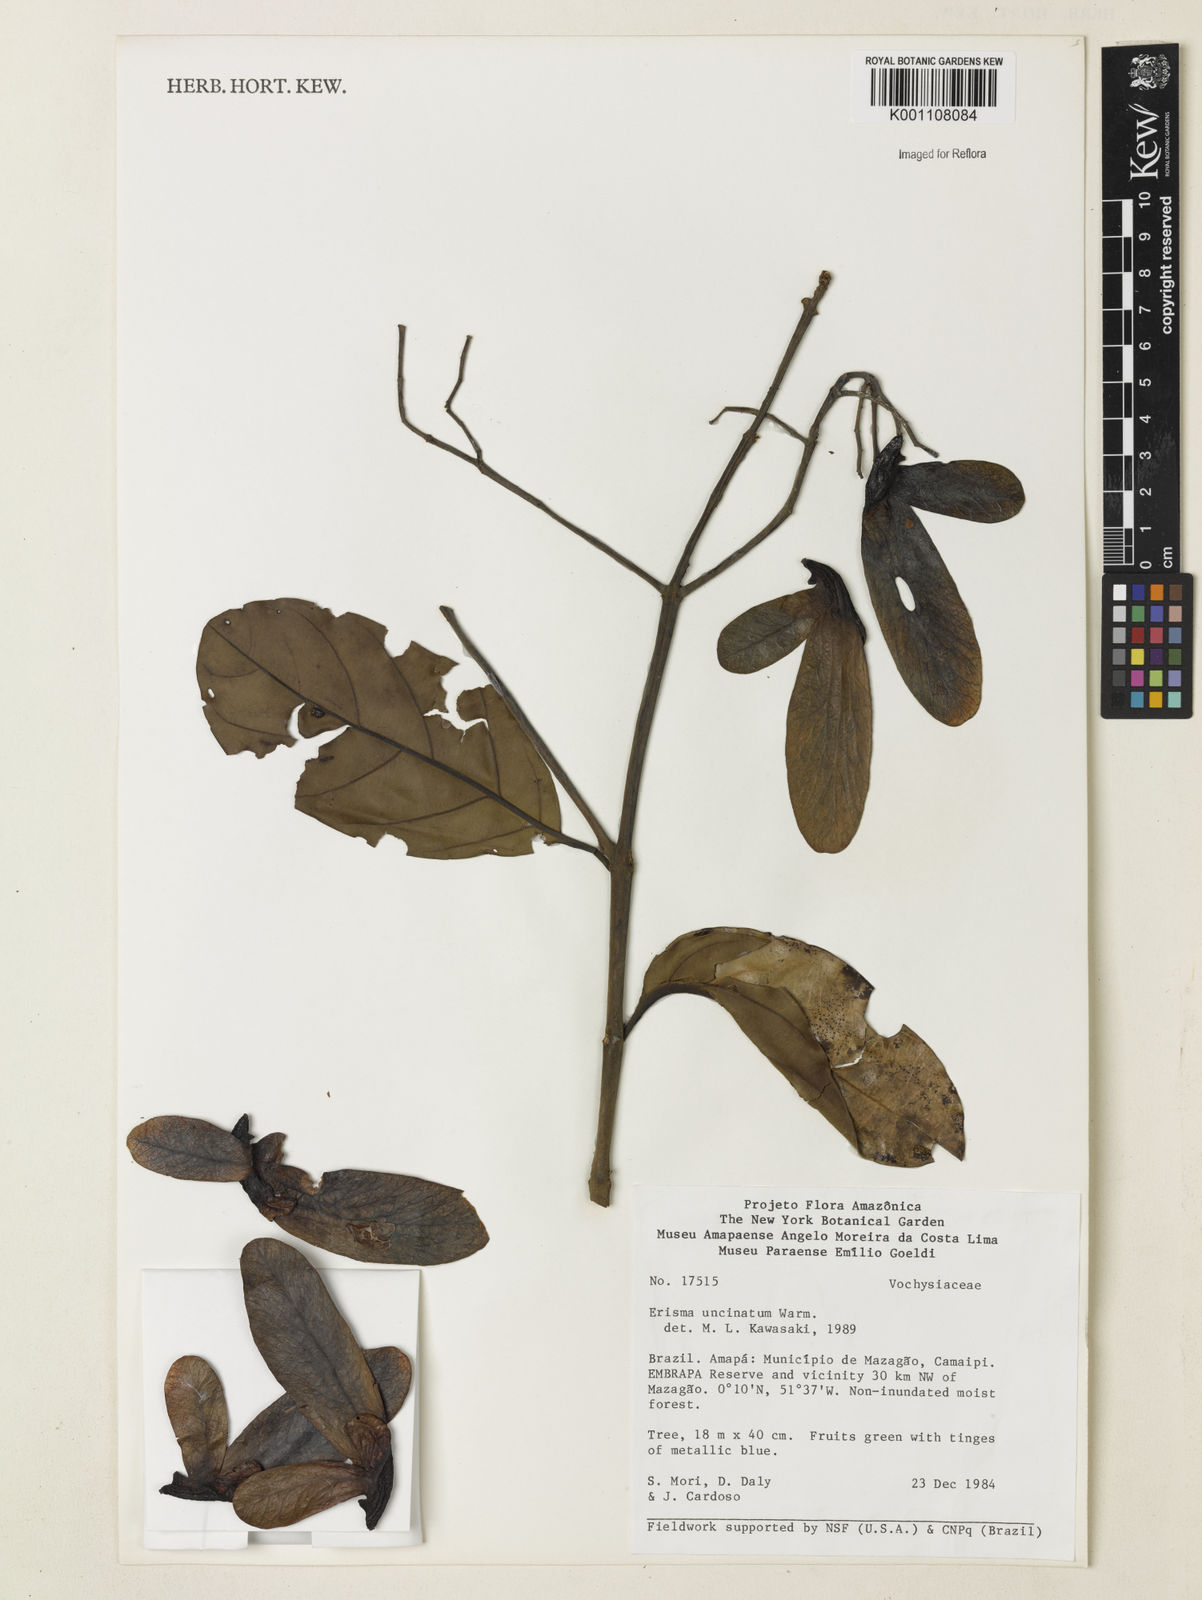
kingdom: Plantae
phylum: Tracheophyta
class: Magnoliopsida
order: Myrtales
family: Vochysiaceae
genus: Erisma
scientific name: Erisma uncinatum
